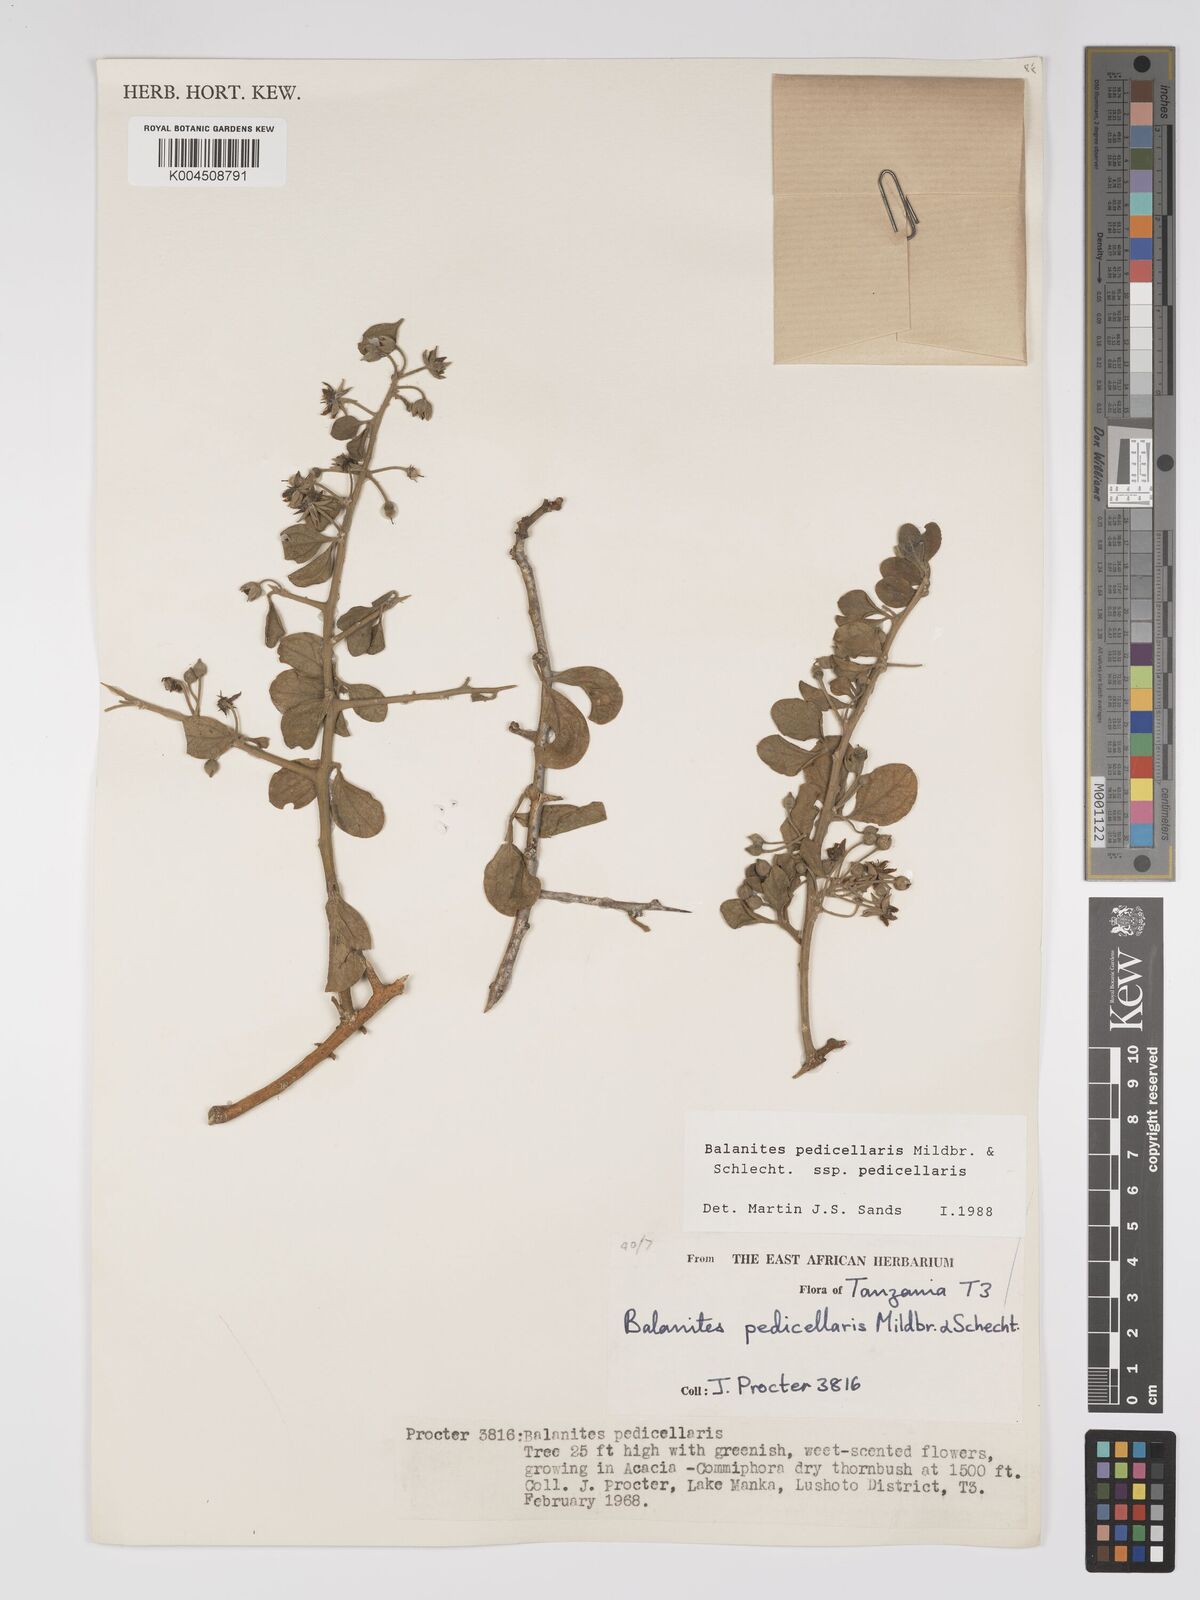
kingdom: Plantae
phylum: Tracheophyta
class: Magnoliopsida
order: Zygophyllales
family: Zygophyllaceae
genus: Balanites
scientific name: Balanites pedicellaris
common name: Small green-thorn
